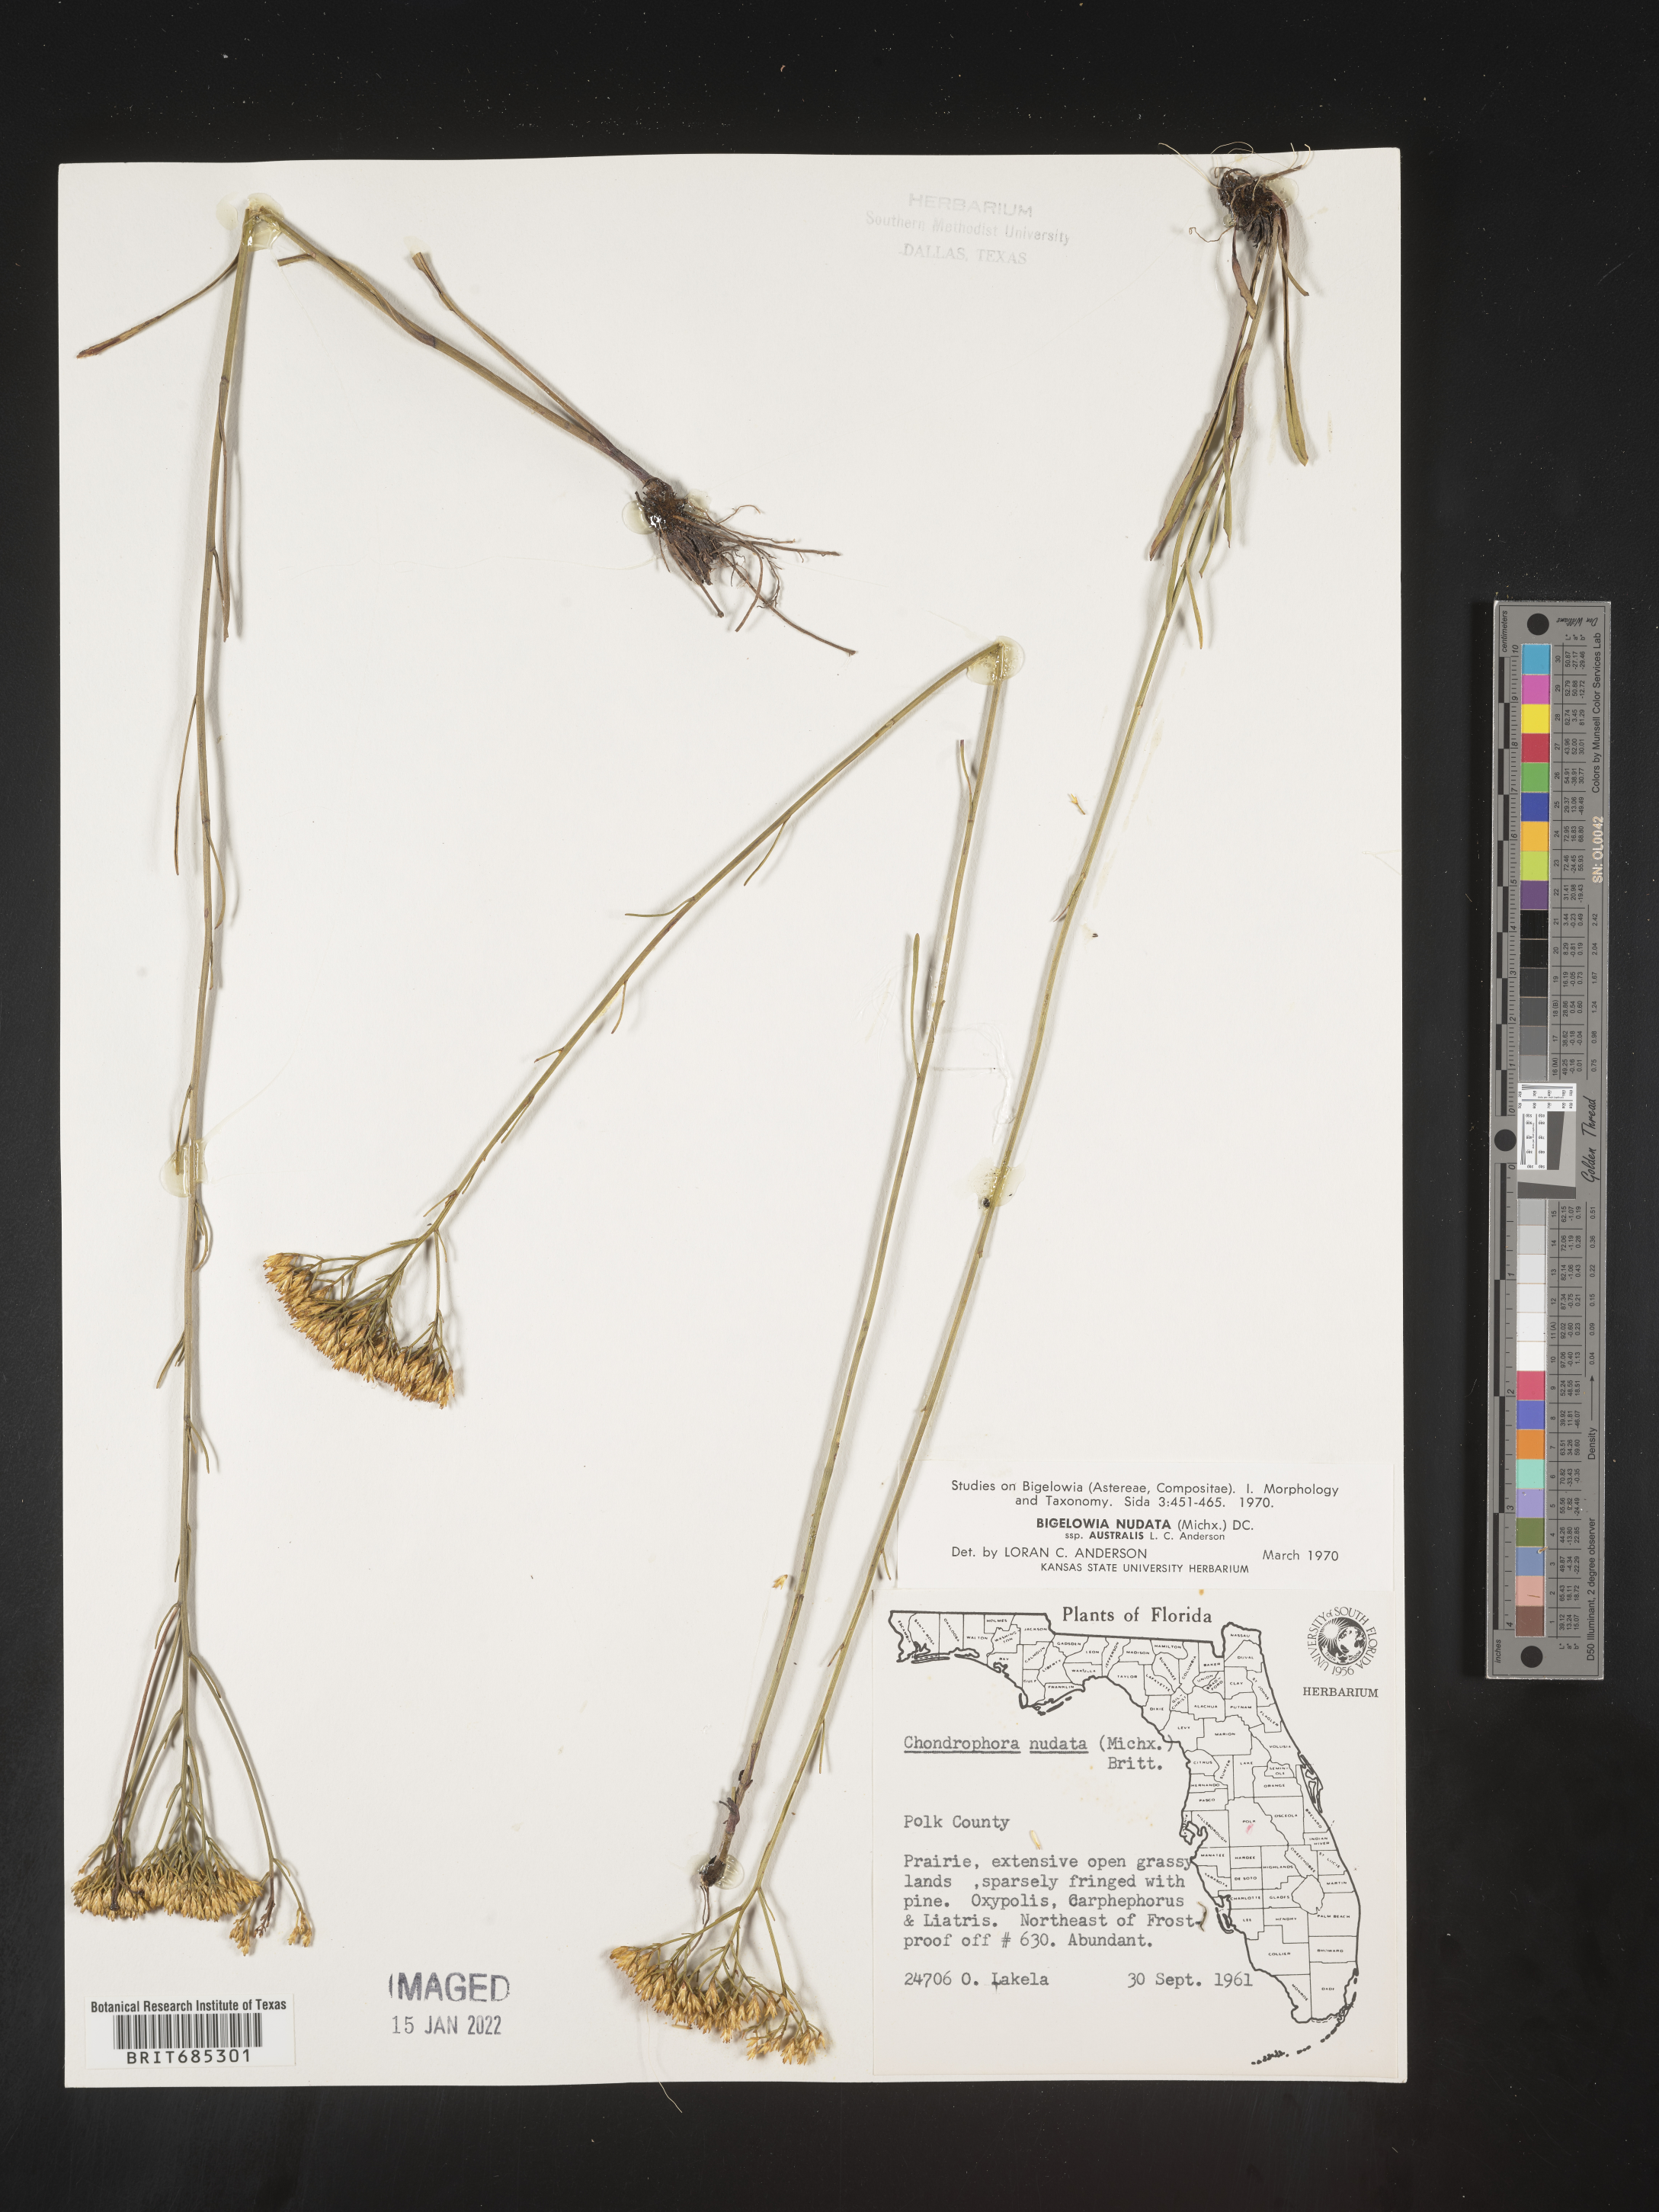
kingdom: Plantae
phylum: Tracheophyta
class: Magnoliopsida
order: Asterales
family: Asteraceae
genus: Bigelowia
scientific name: Bigelowia nudata
